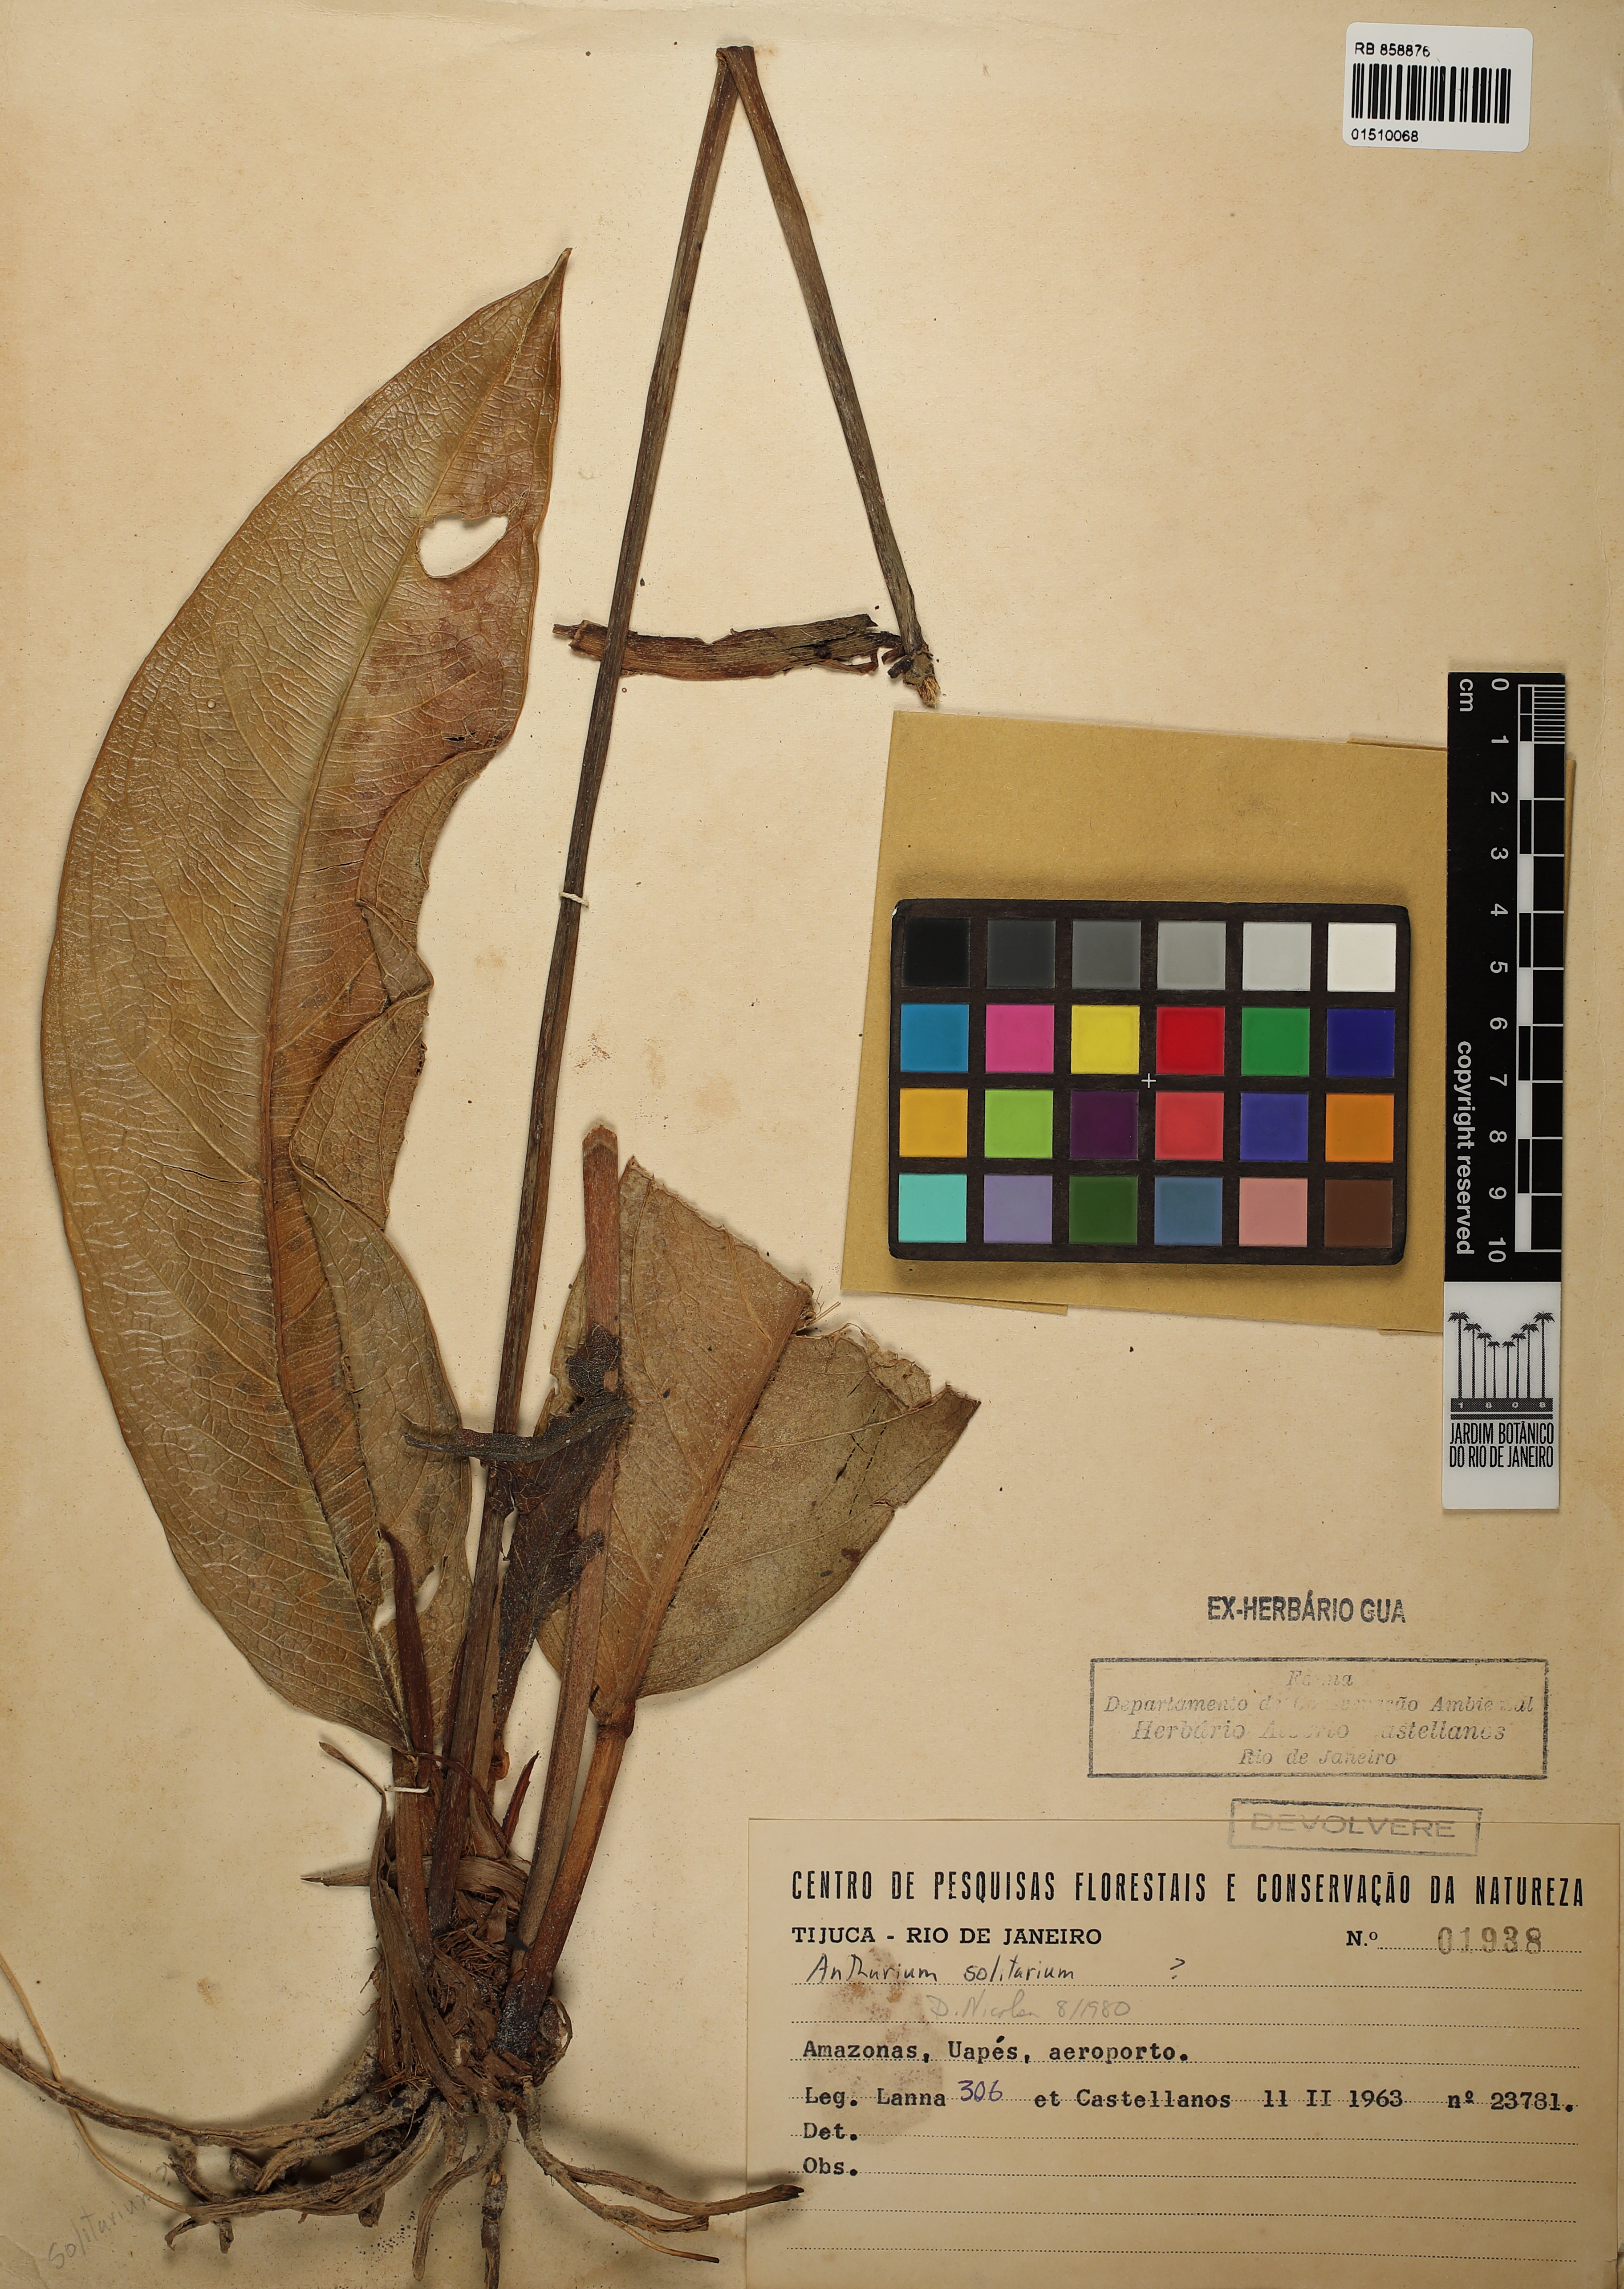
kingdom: Plantae
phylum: Tracheophyta
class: Liliopsida
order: Alismatales
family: Araceae
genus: Anthurium
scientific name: Anthurium solitarium
